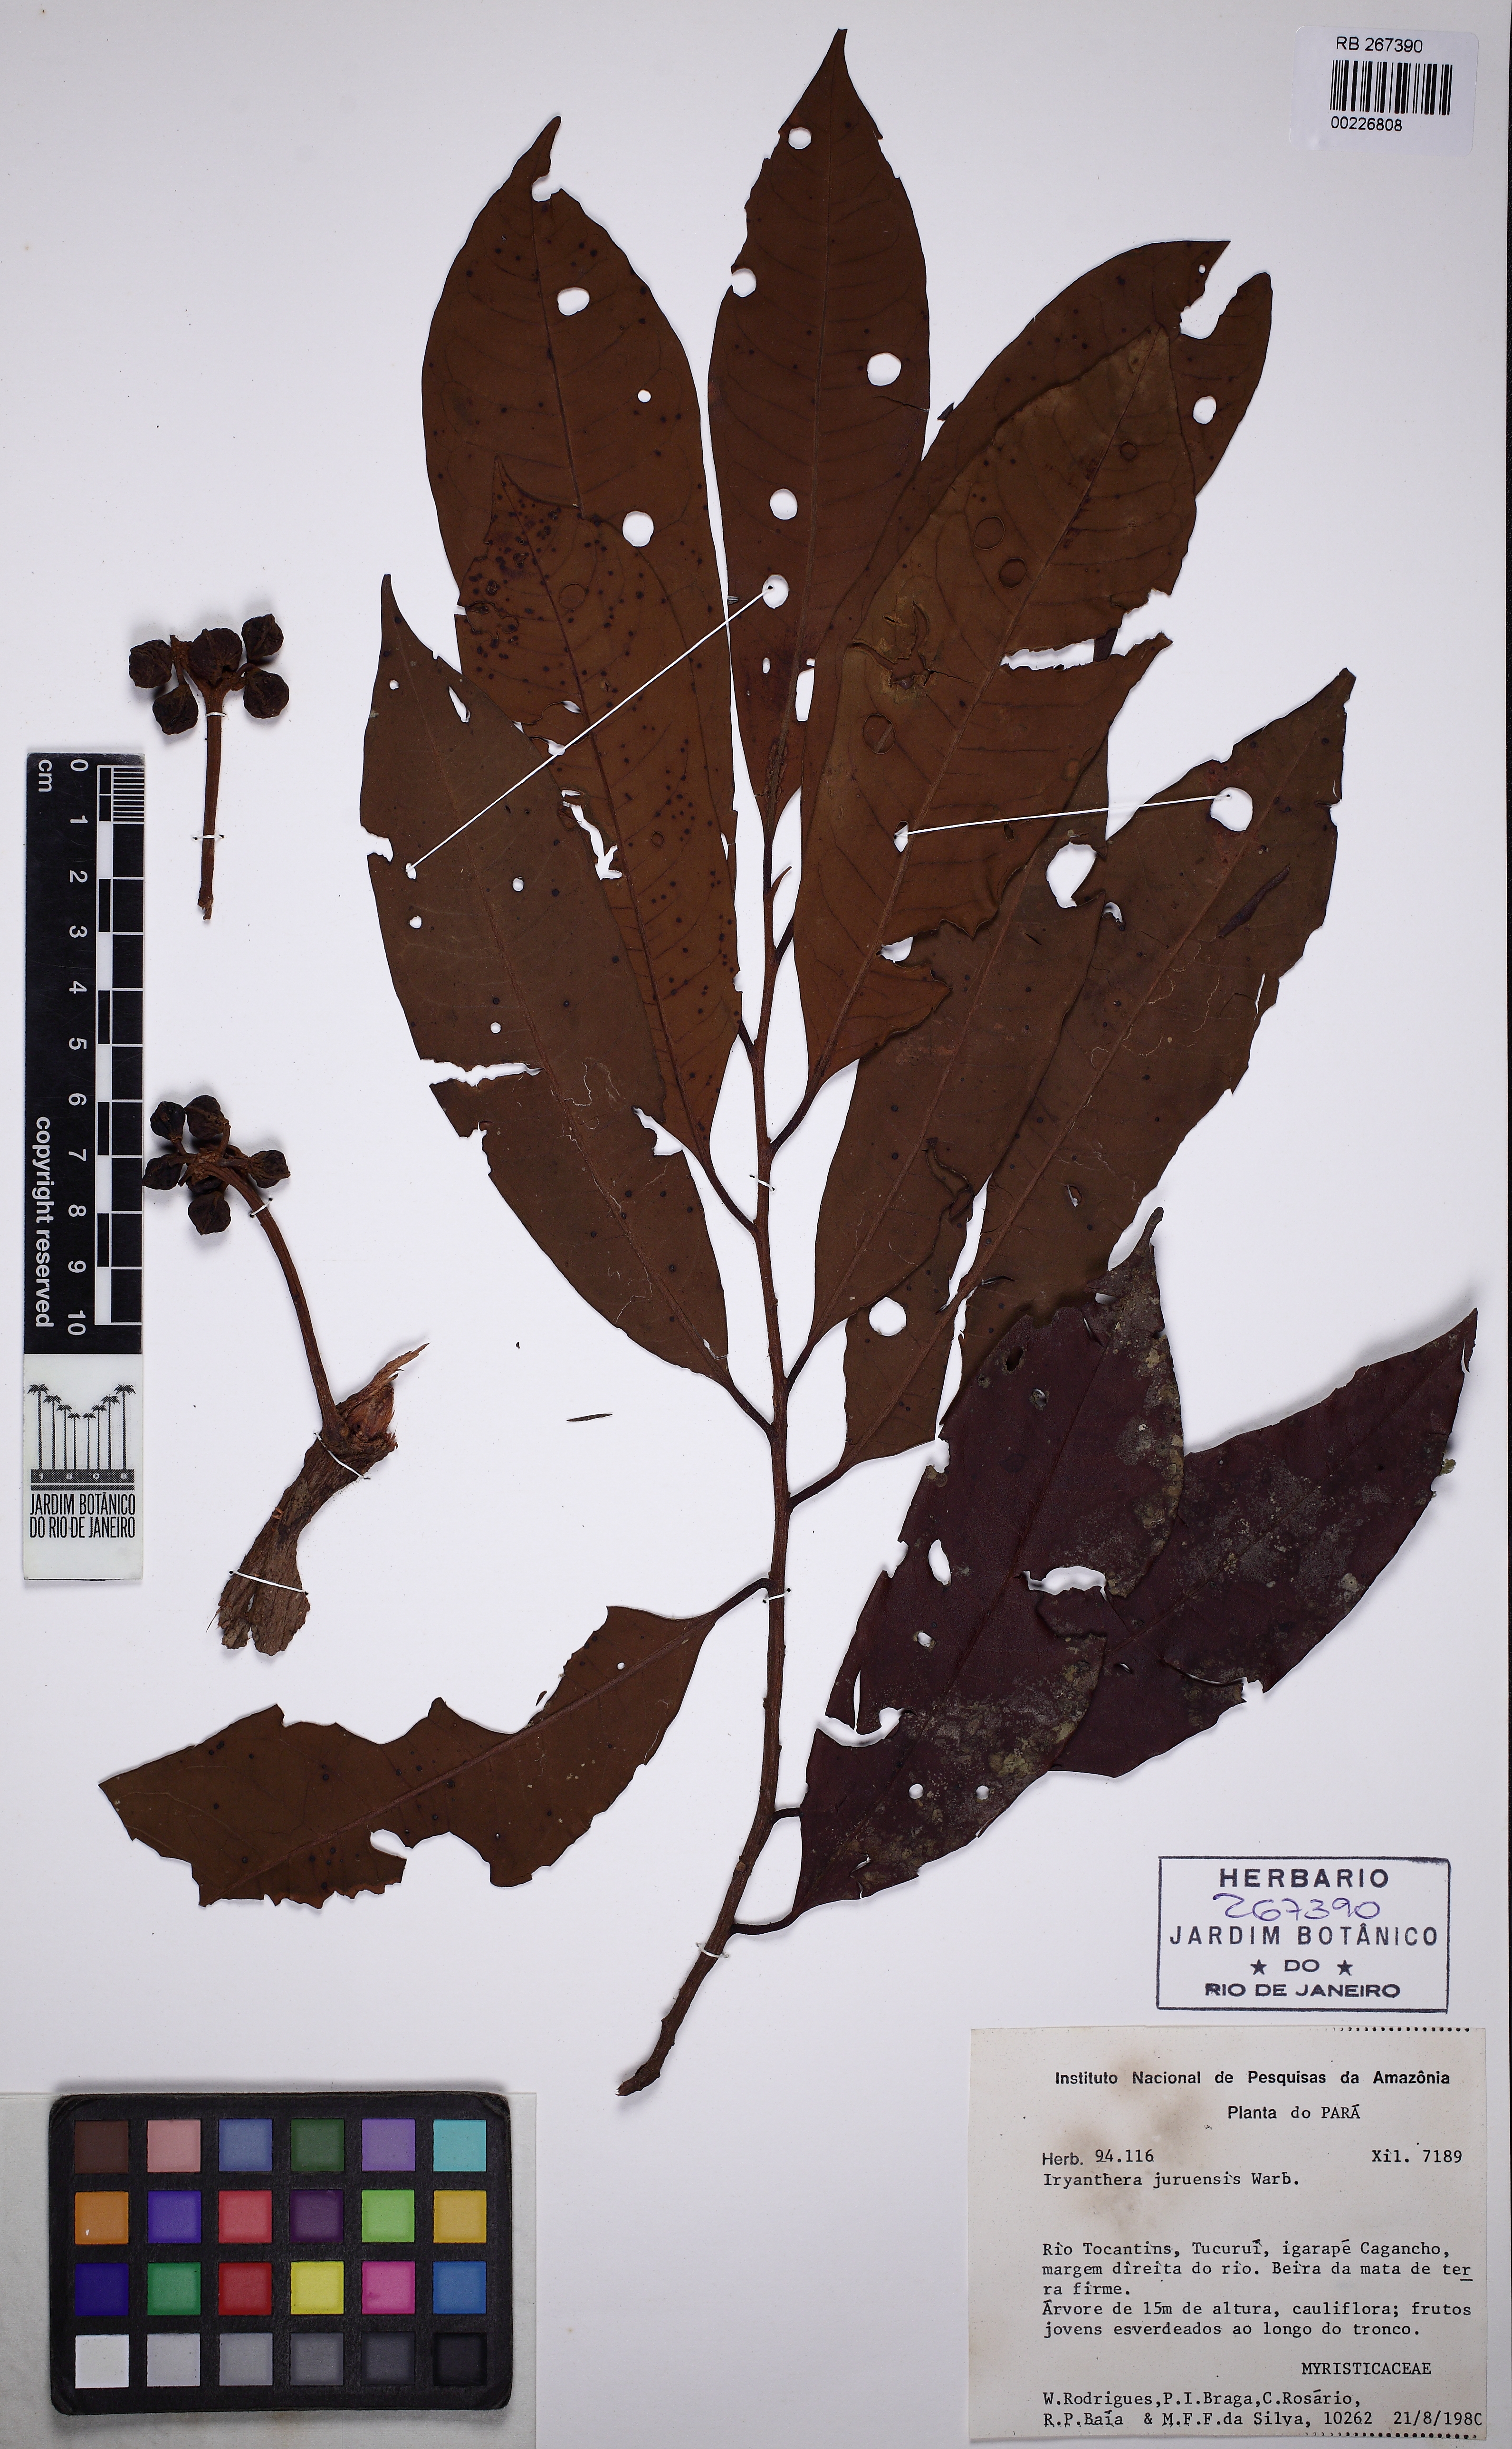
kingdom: Plantae
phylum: Tracheophyta
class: Magnoliopsida
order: Magnoliales
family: Myristicaceae
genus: Iryanthera
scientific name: Iryanthera juruensis
